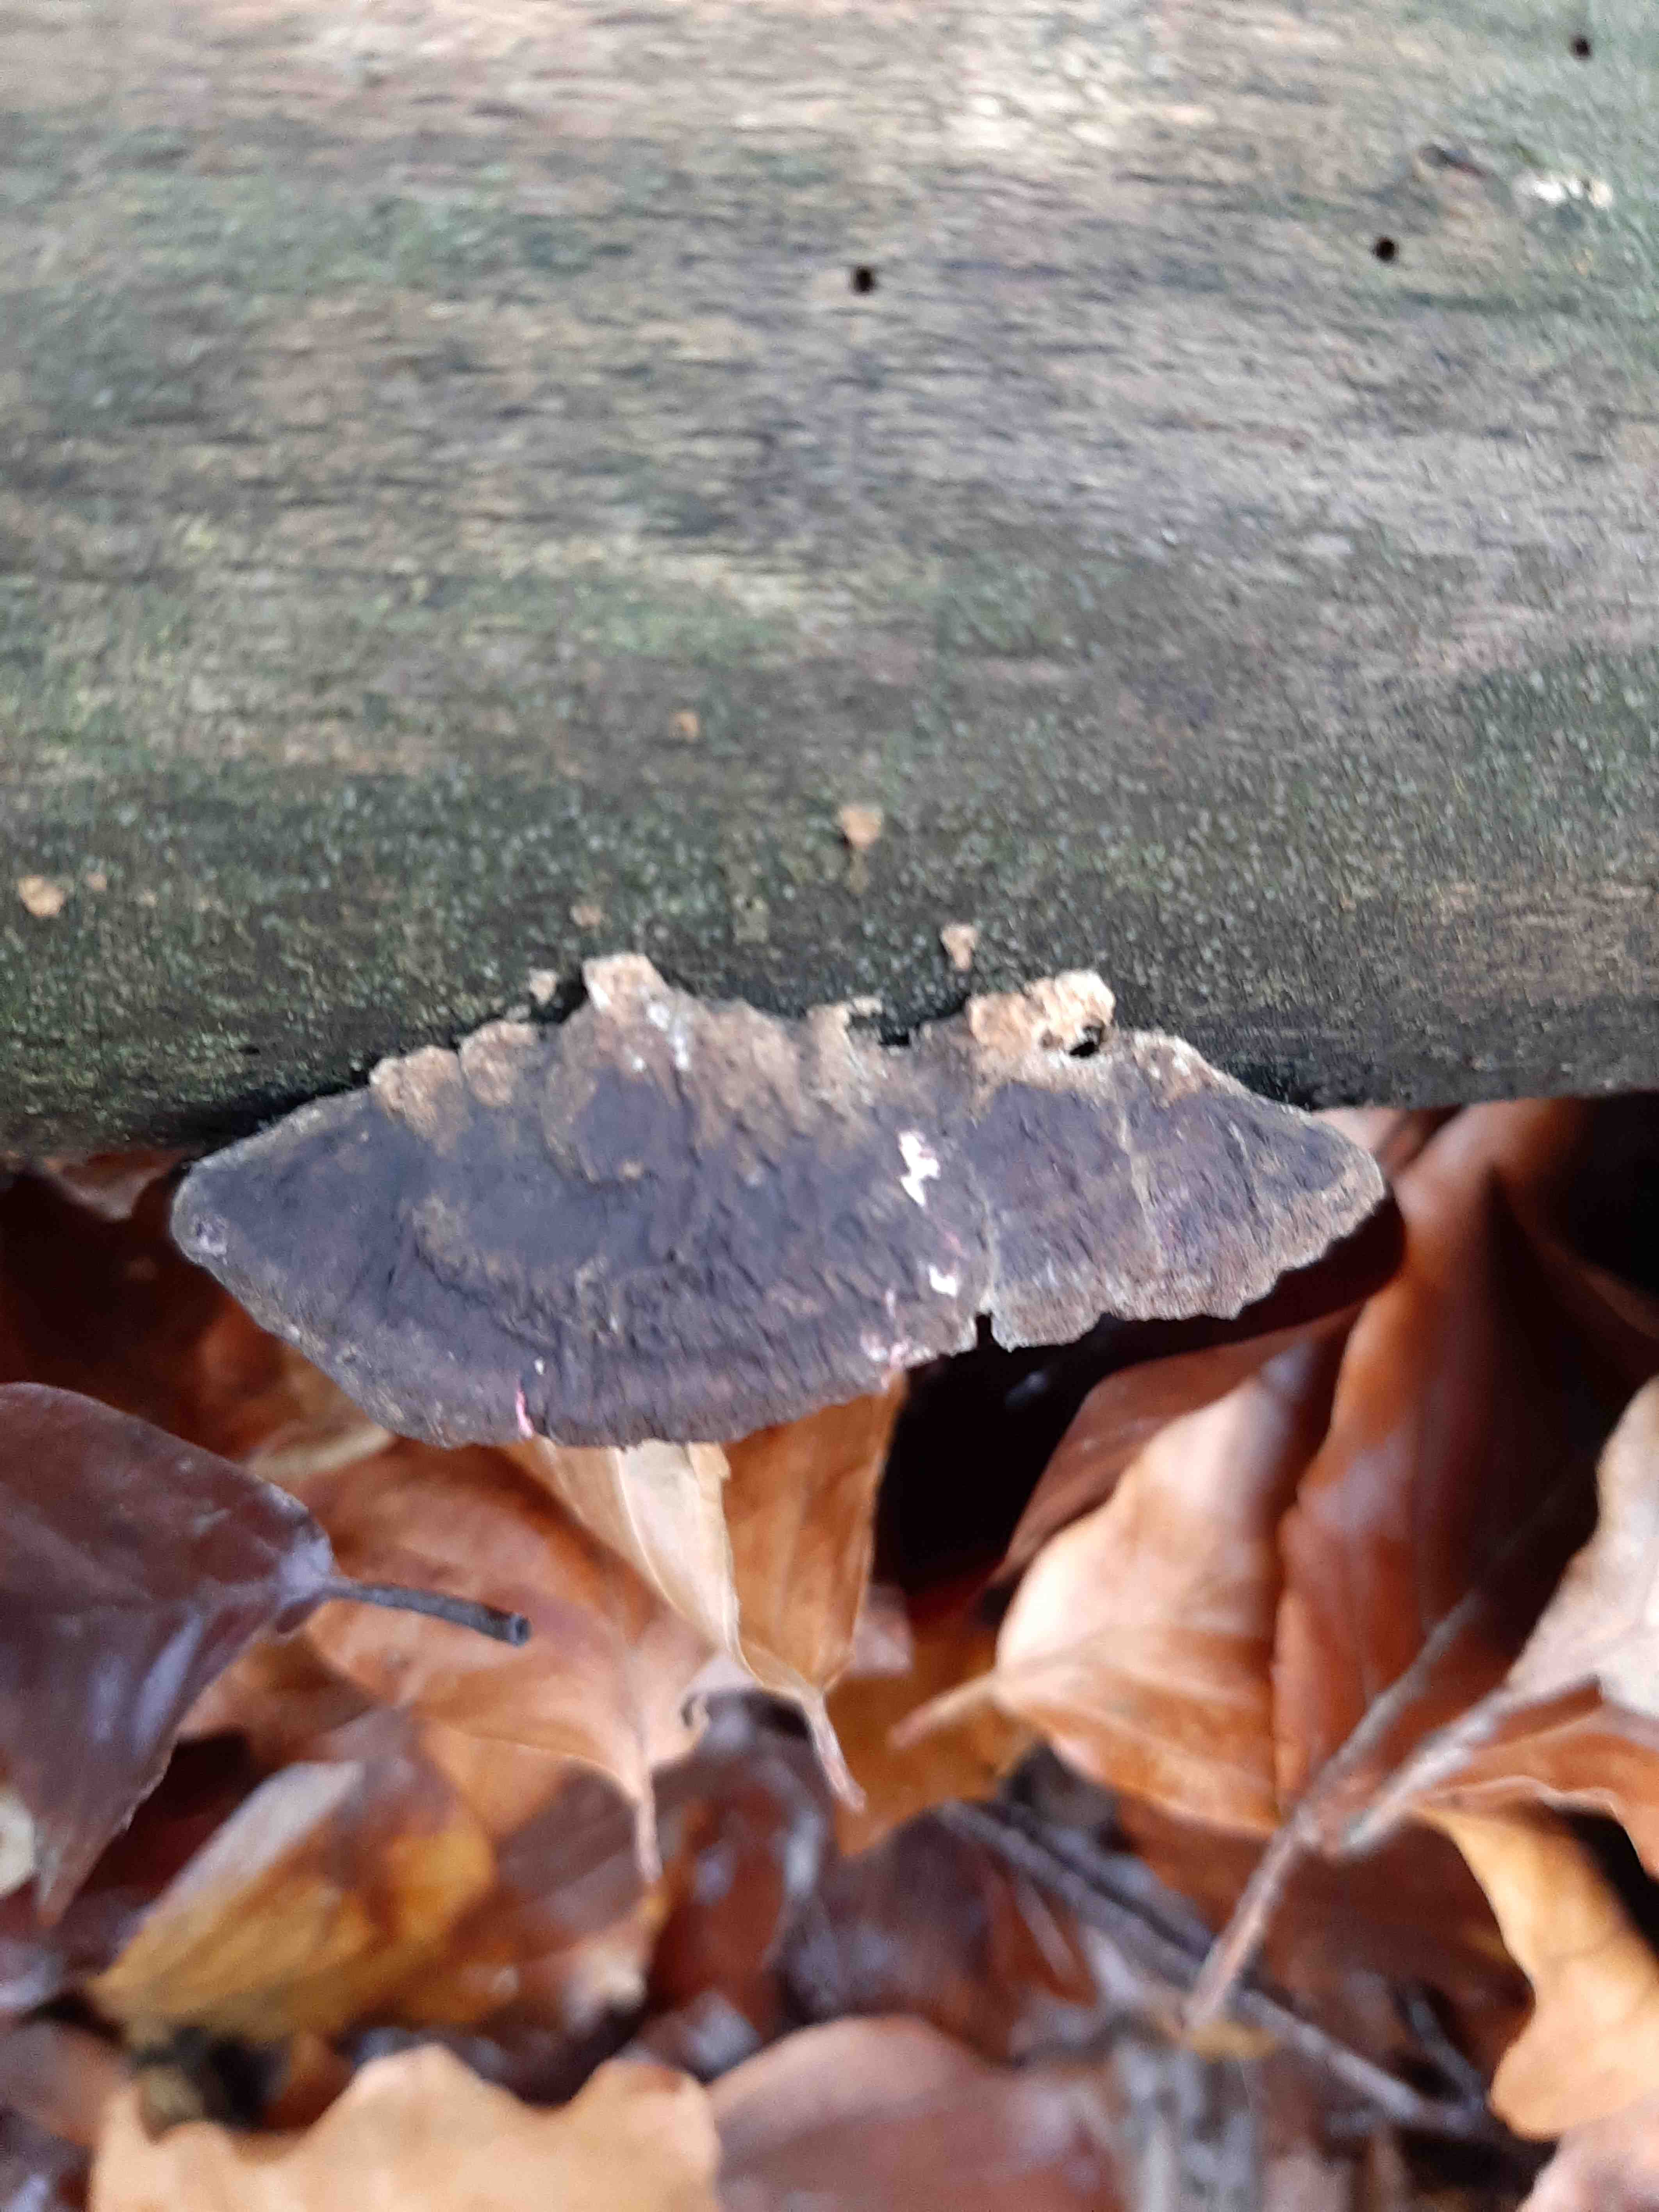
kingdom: Fungi
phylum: Basidiomycota
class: Agaricomycetes
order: Polyporales
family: Polyporaceae
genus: Daedaleopsis
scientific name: Daedaleopsis confragosa
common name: rødmende læderporesvamp
